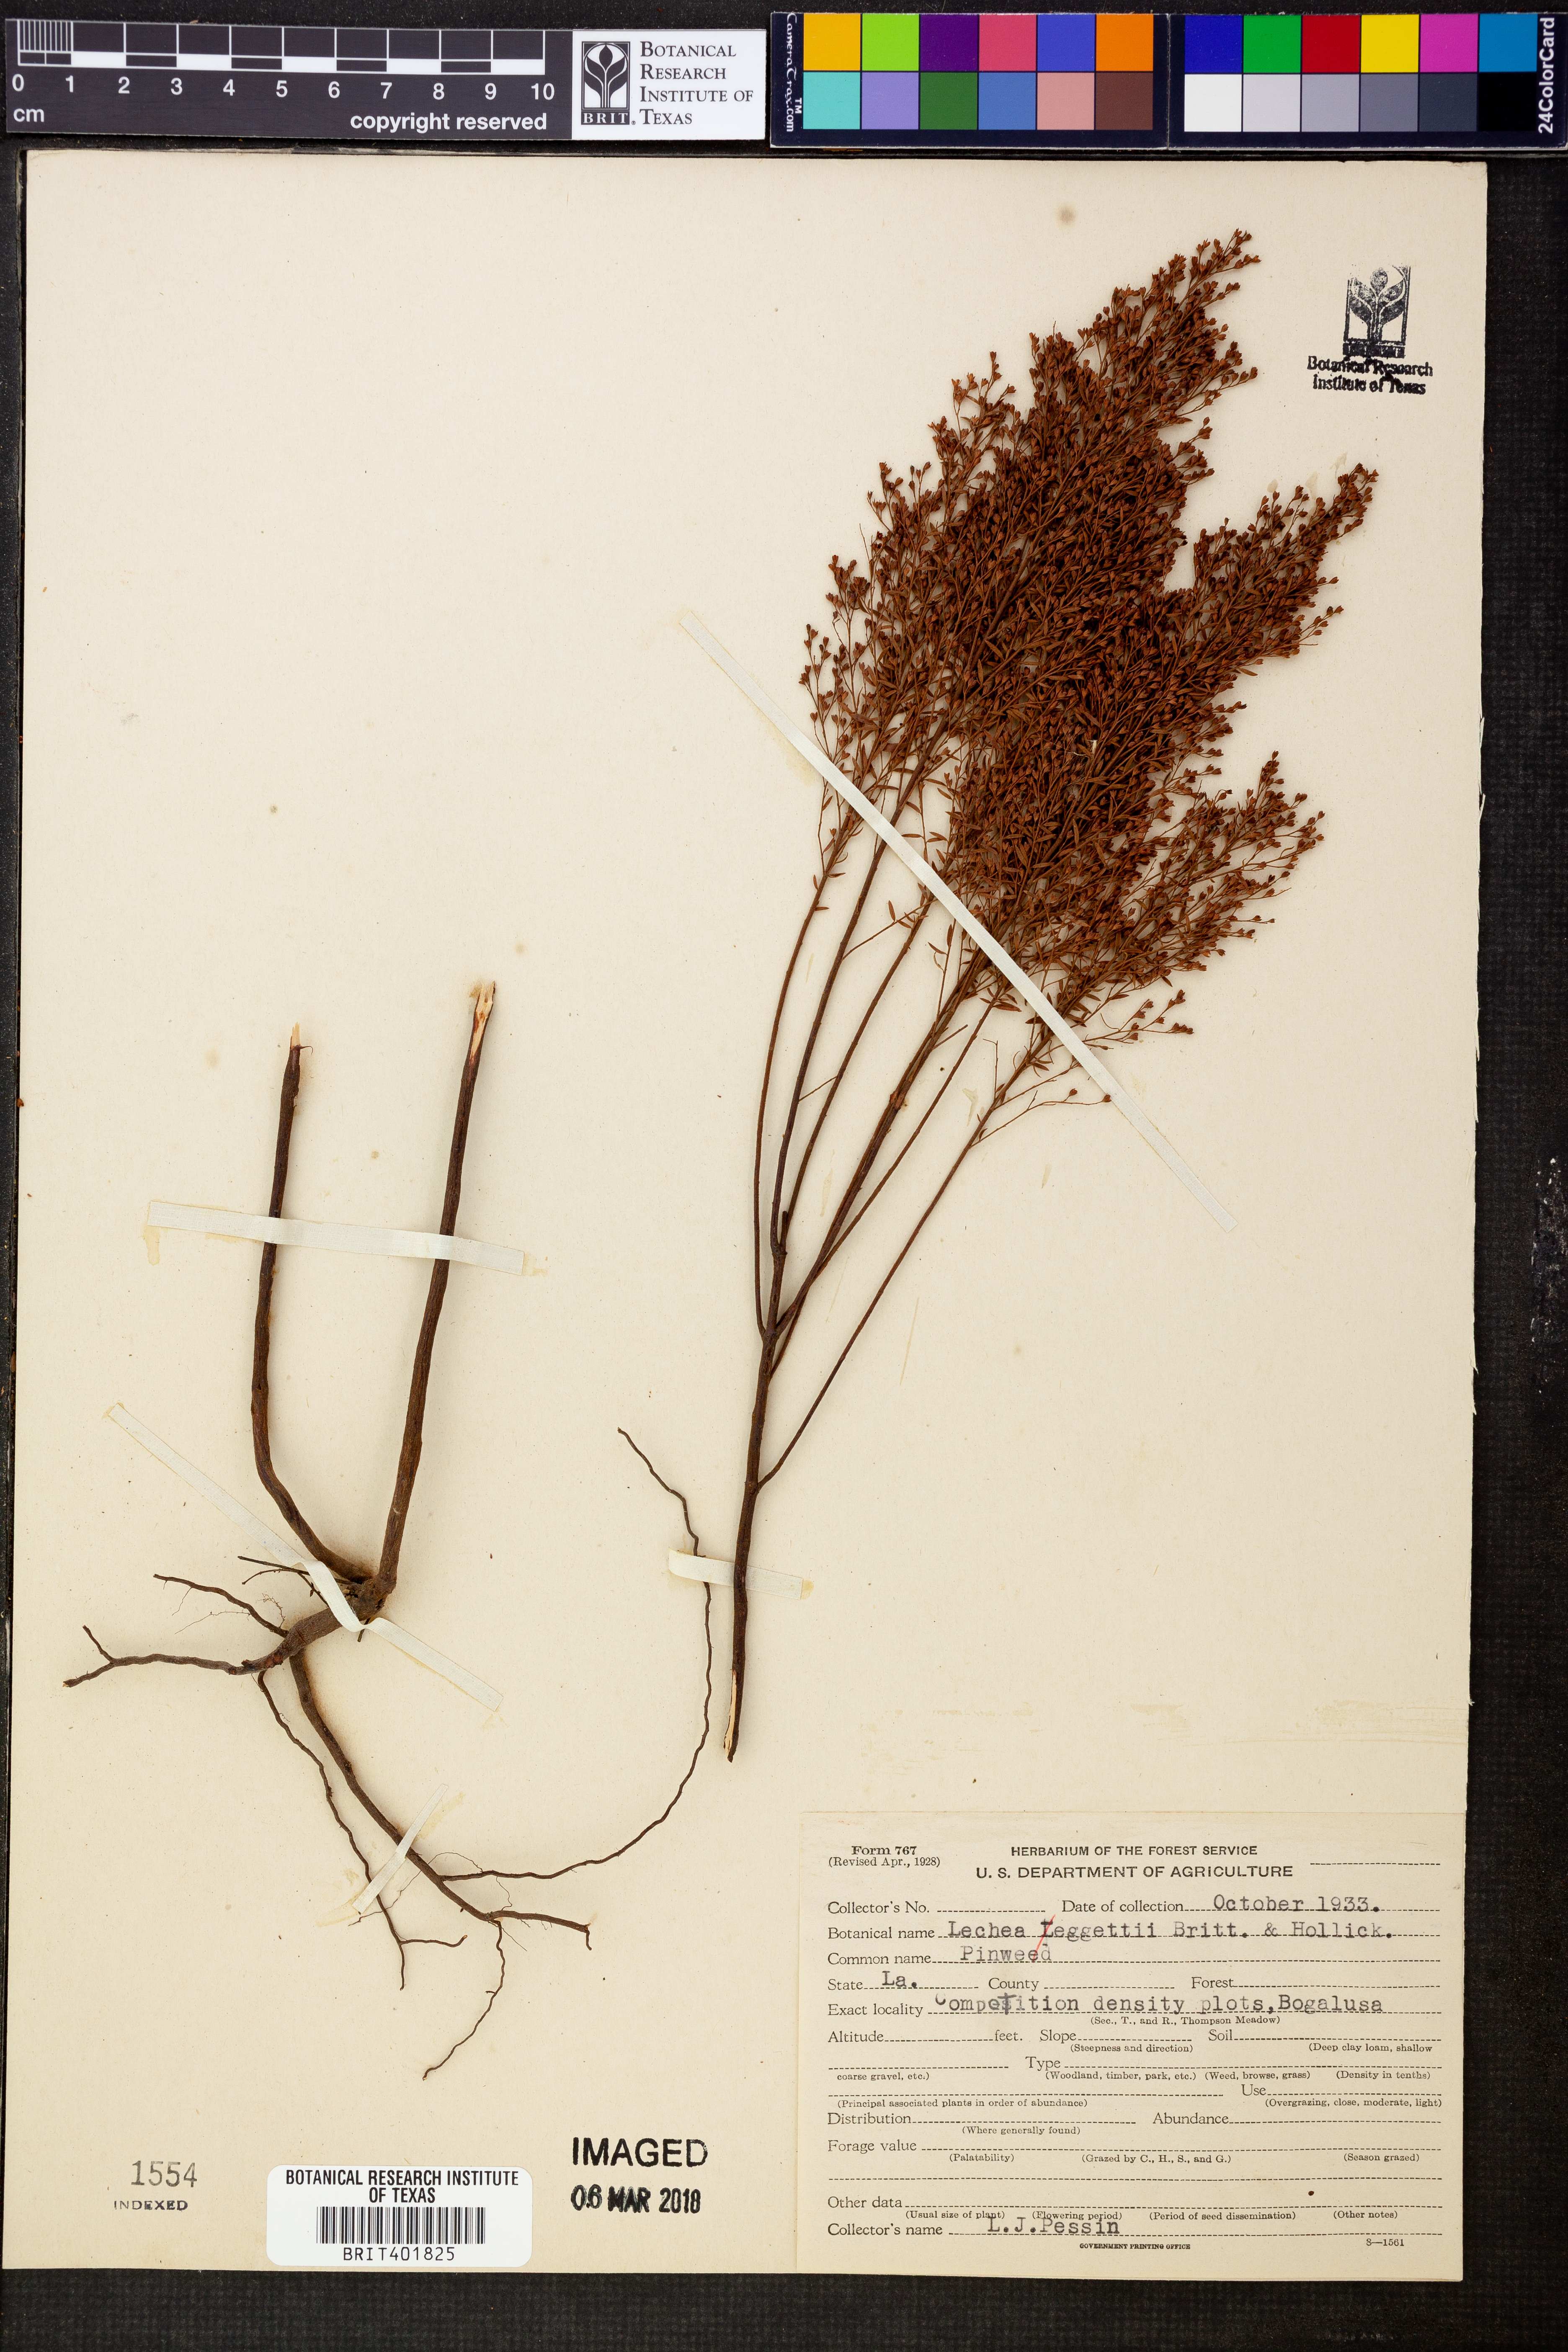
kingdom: Plantae
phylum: Tracheophyta
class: Magnoliopsida
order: Malvales
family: Cistaceae
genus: Lechea
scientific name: Lechea pulchella
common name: Leggett's pinweed
